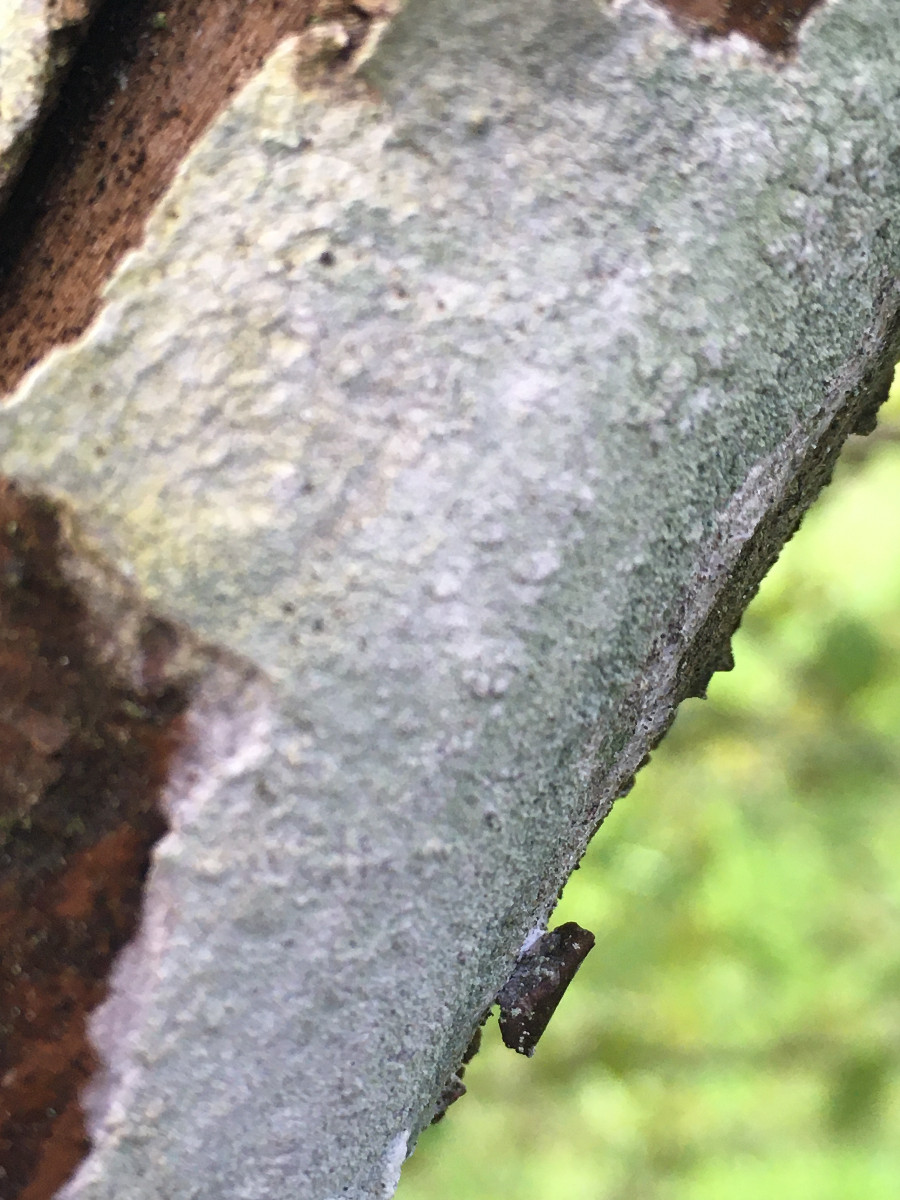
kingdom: Plantae
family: Lecanoromycetidae
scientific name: Lecanoromycetidae
